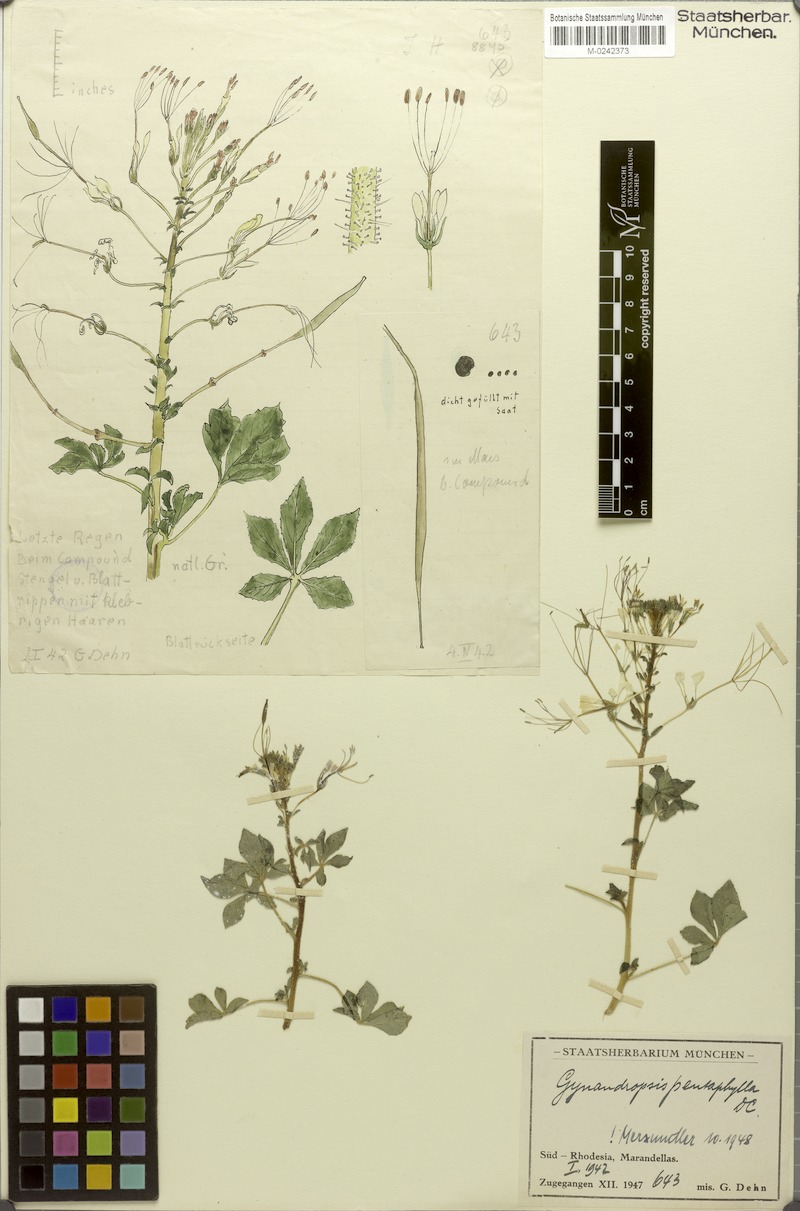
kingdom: Plantae
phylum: Tracheophyta
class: Magnoliopsida
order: Brassicales
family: Cleomaceae
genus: Gynandropsis
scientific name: Gynandropsis gynandra
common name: Spiderwisp
